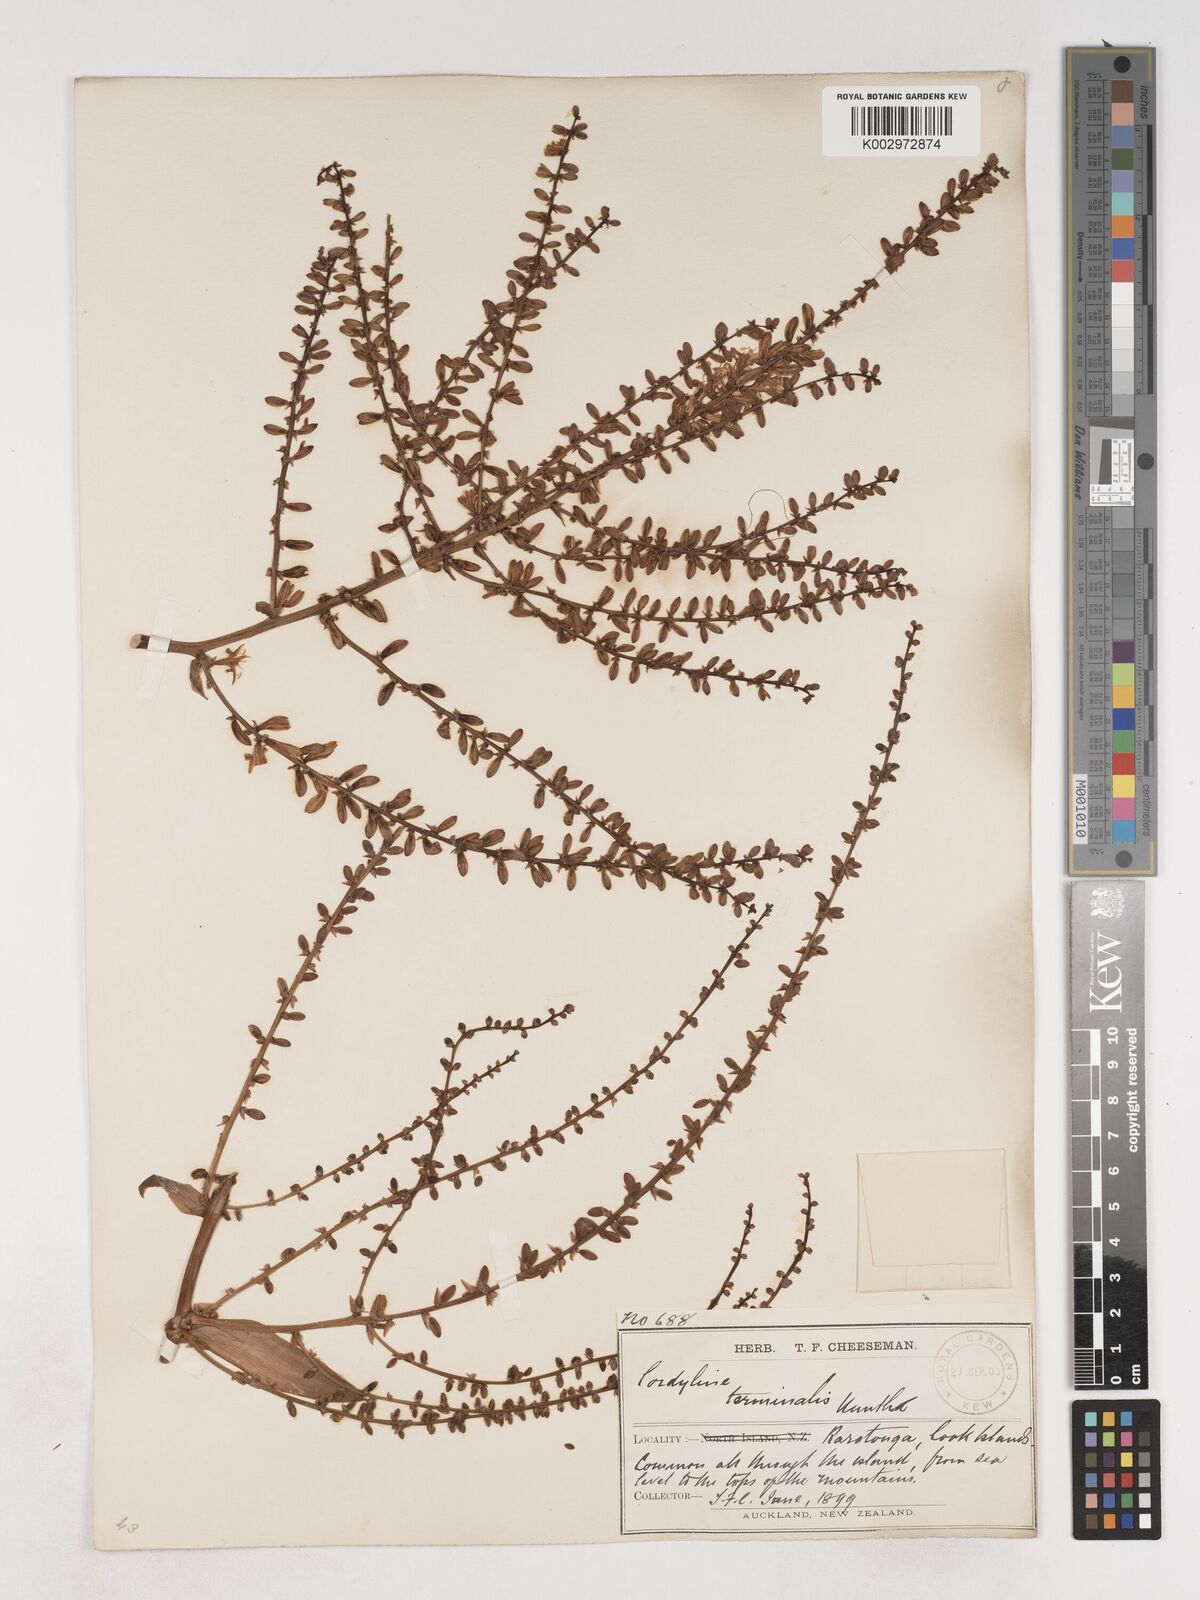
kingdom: Plantae
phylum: Tracheophyta
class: Liliopsida
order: Asparagales
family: Asparagaceae
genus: Cordyline
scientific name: Cordyline fruticosa
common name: Good-luck-plant
